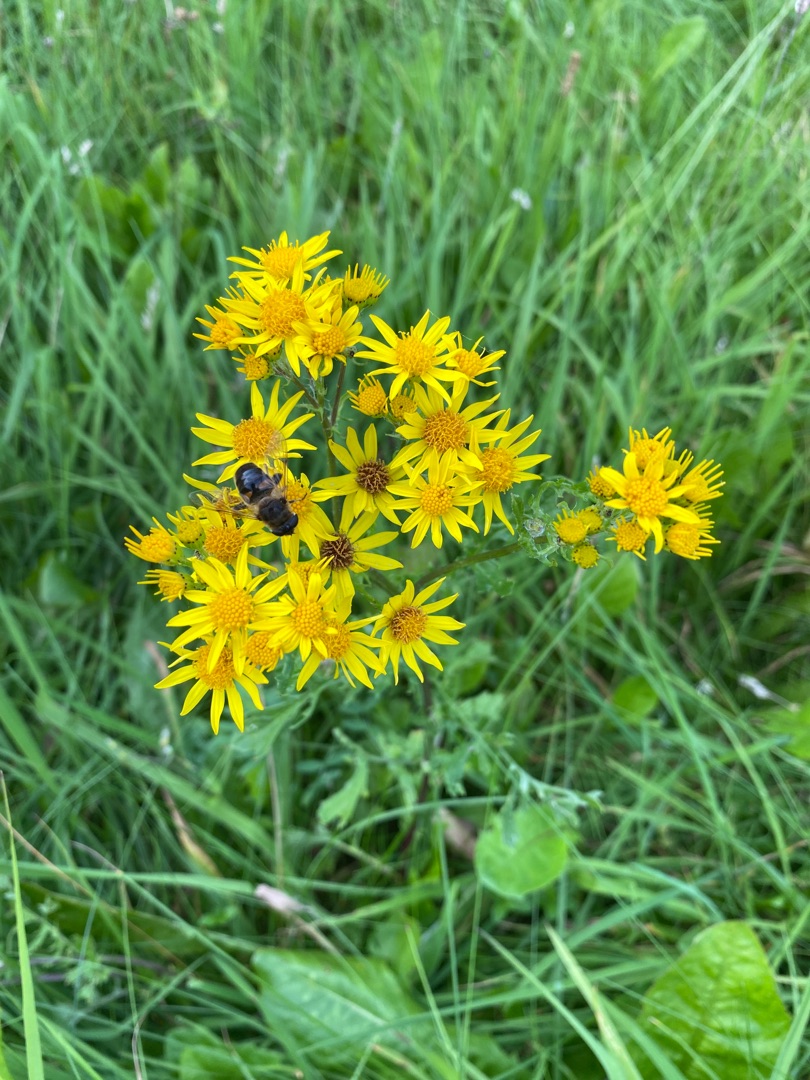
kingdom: Plantae
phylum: Tracheophyta
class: Magnoliopsida
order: Asterales
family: Asteraceae
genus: Jacobaea
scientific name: Jacobaea vulgaris
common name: Eng-brandbæger
